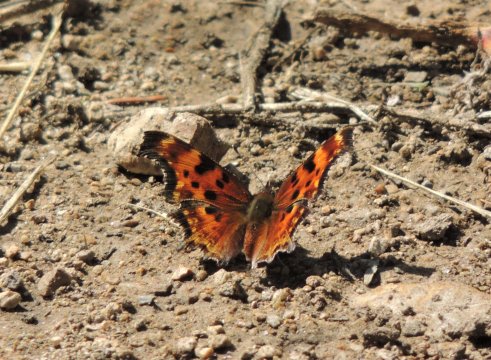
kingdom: Animalia
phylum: Arthropoda
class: Insecta
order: Lepidoptera
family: Nymphalidae
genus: Polygonia
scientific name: Polygonia gracilis
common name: Hoary Comma
